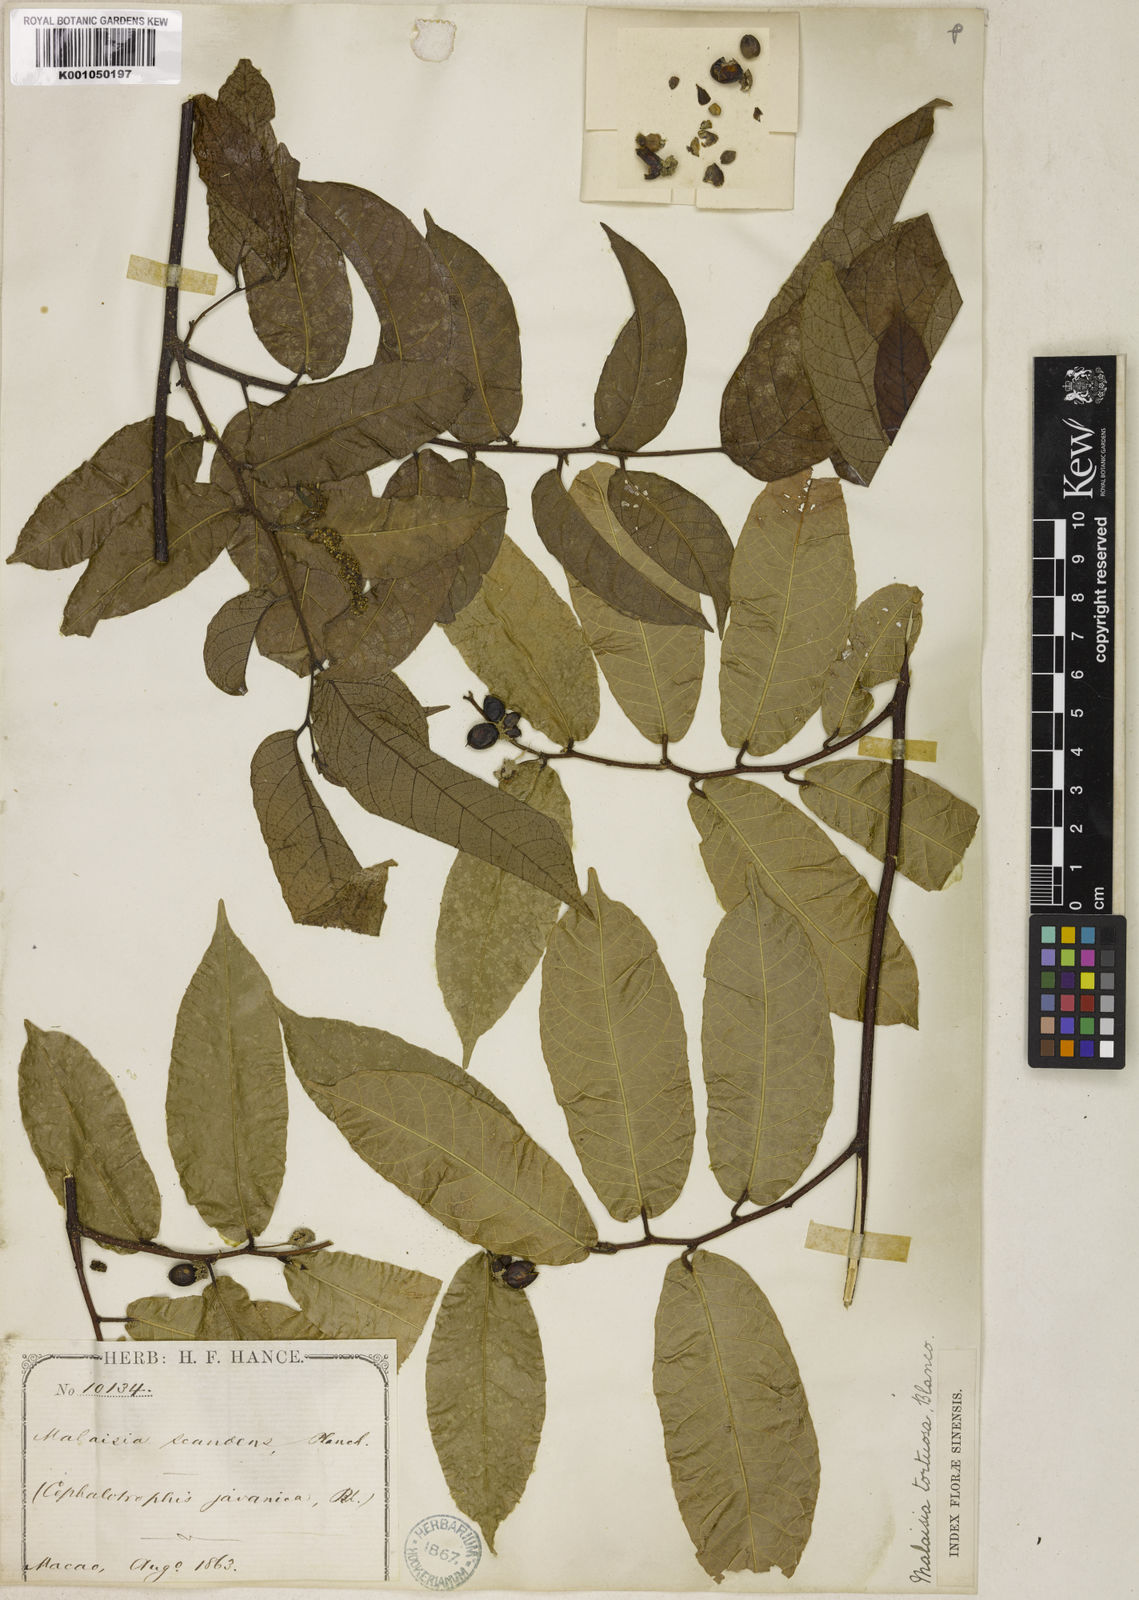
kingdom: Plantae
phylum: Tracheophyta
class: Magnoliopsida
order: Rosales
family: Moraceae
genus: Malaisia
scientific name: Malaisia scandens
